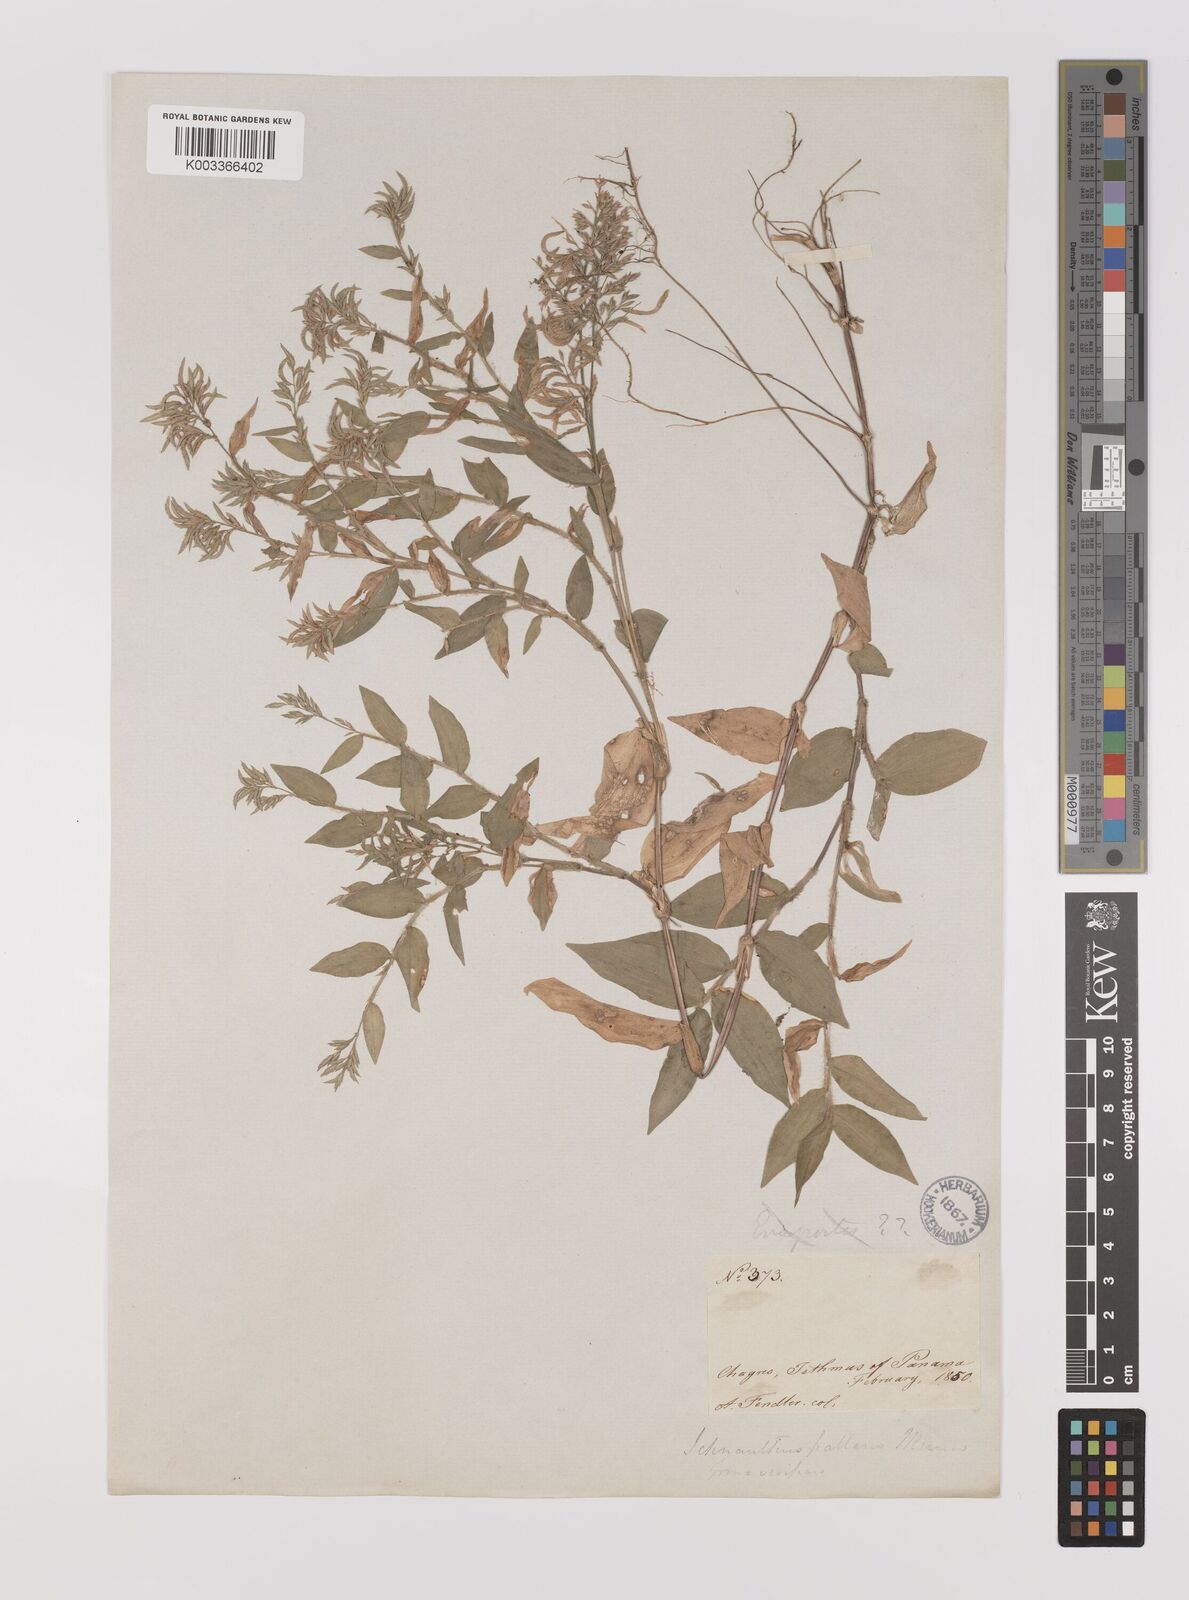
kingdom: Plantae
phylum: Tracheophyta
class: Liliopsida
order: Poales
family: Poaceae
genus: Ichnanthus
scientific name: Ichnanthus pallens
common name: Water grass
